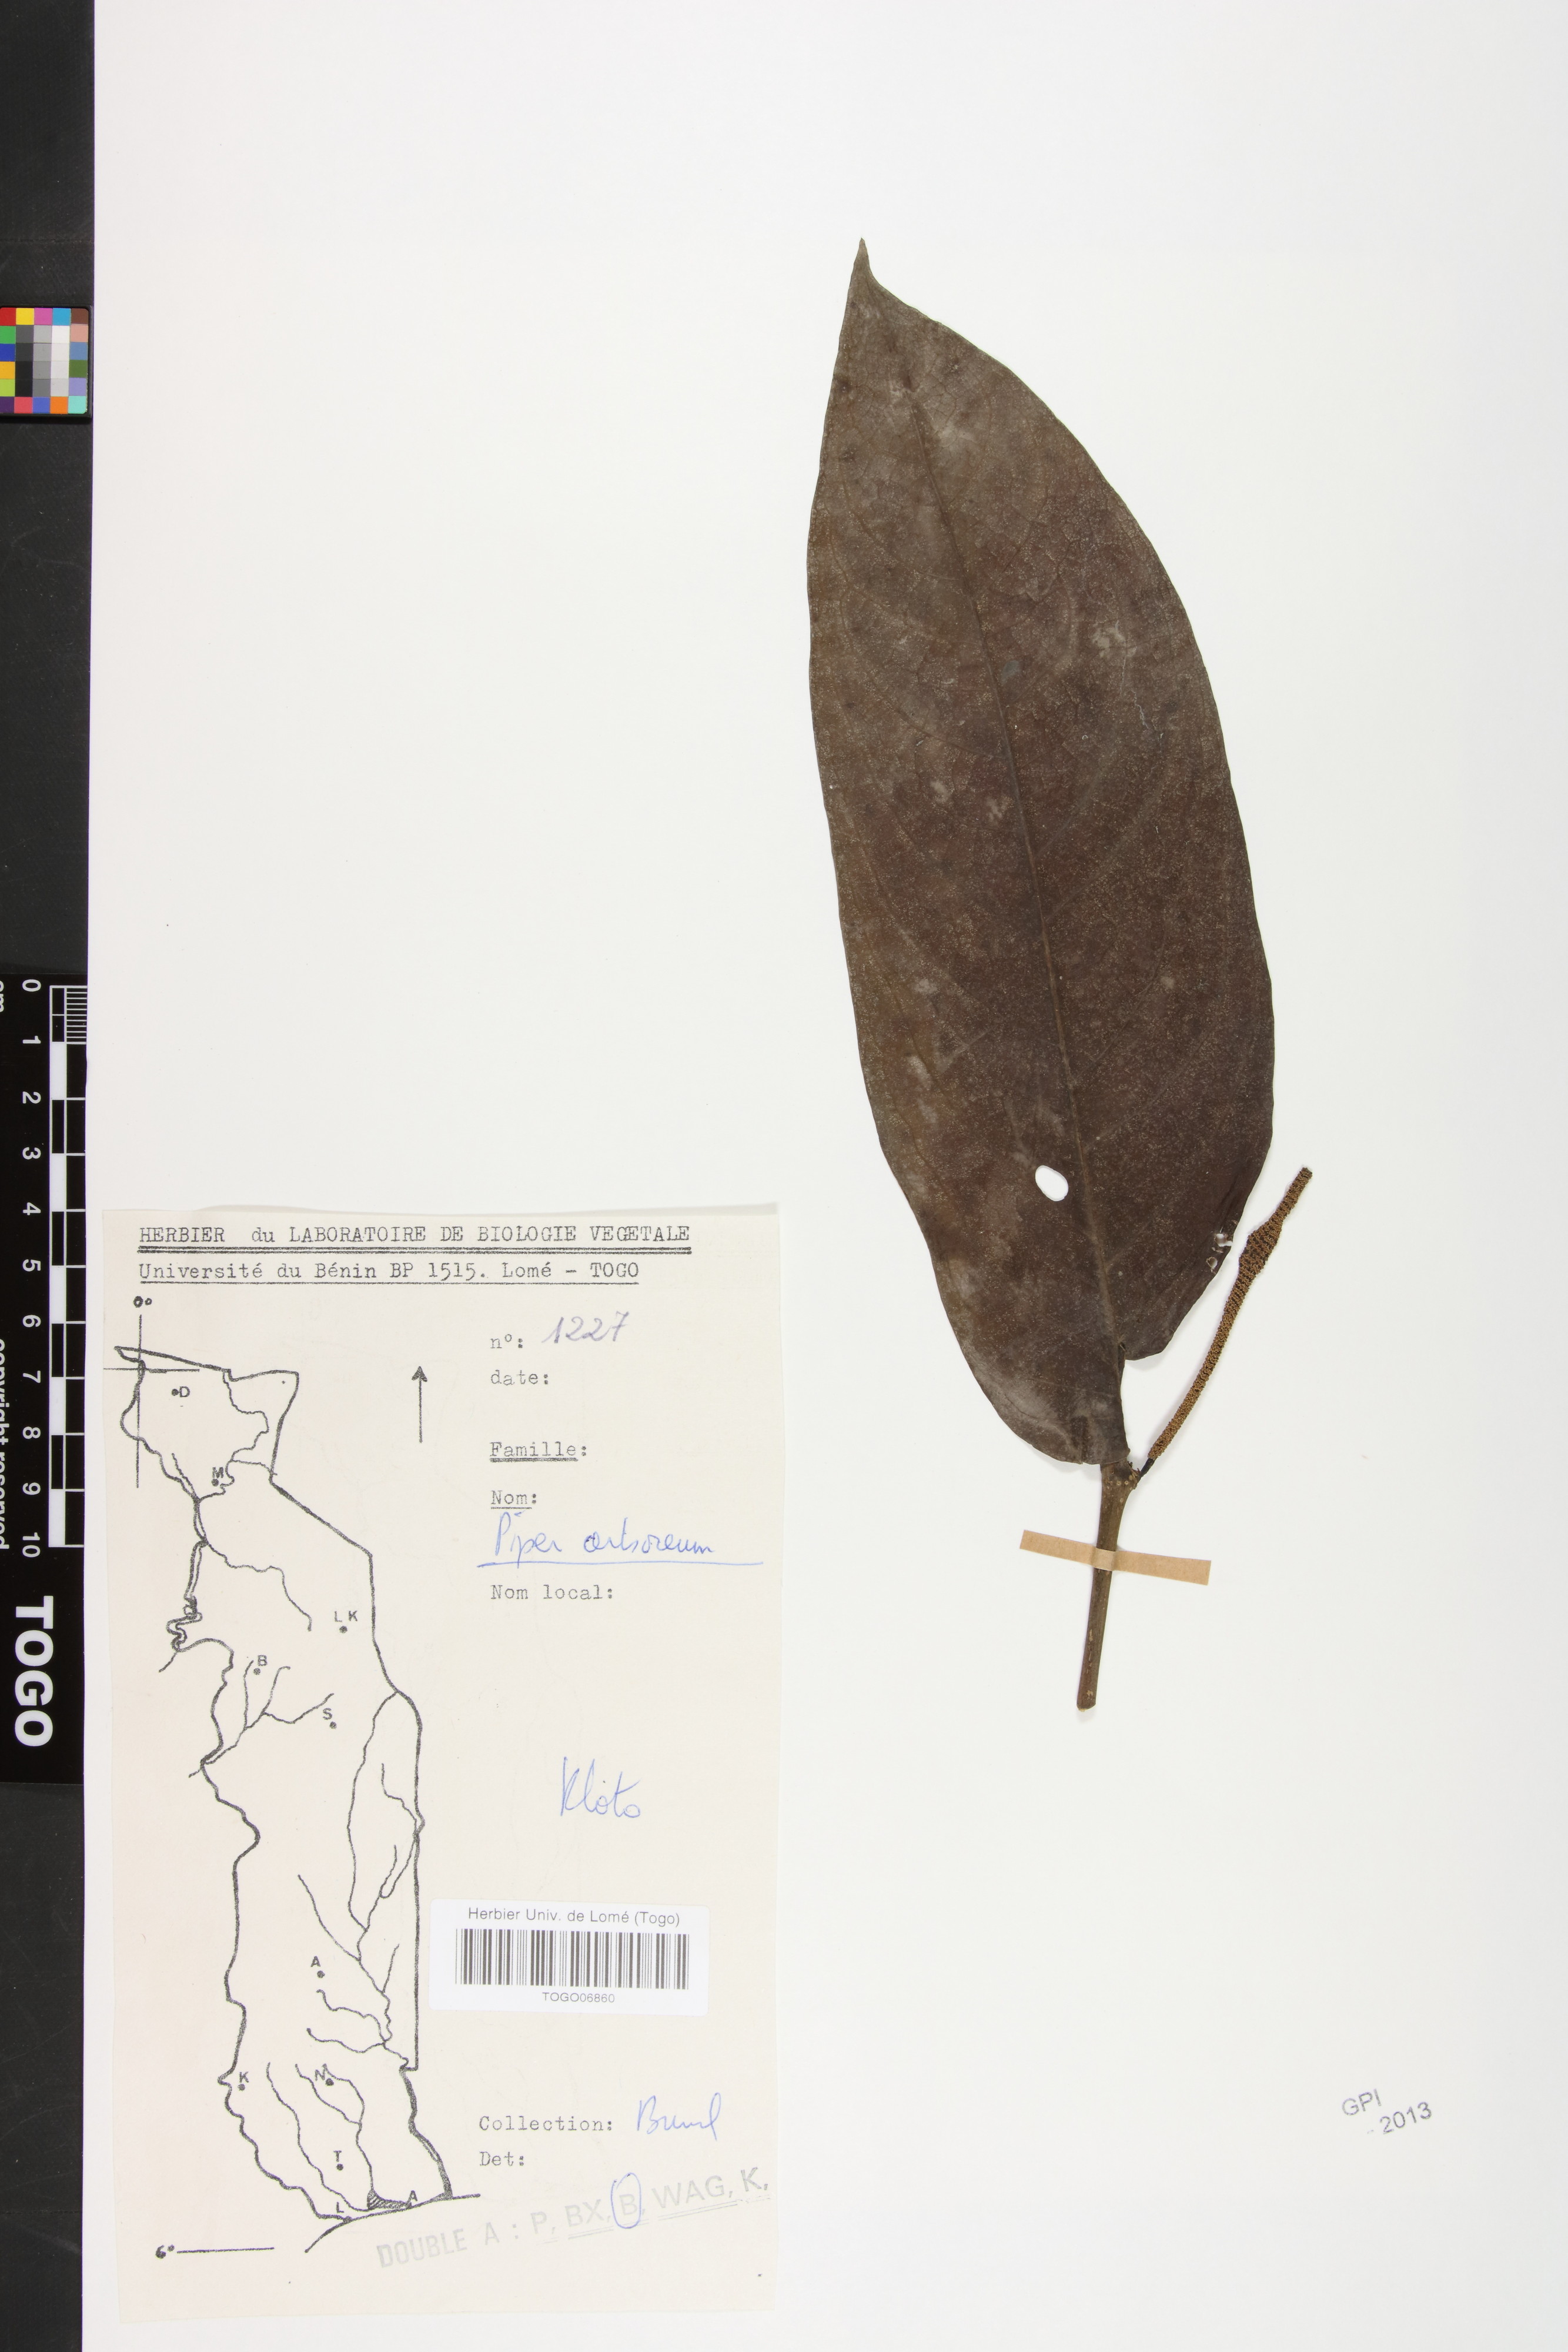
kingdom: Plantae
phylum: Tracheophyta
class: Magnoliopsida
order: Piperales
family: Piperaceae
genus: Piper
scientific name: Piper arboreum
